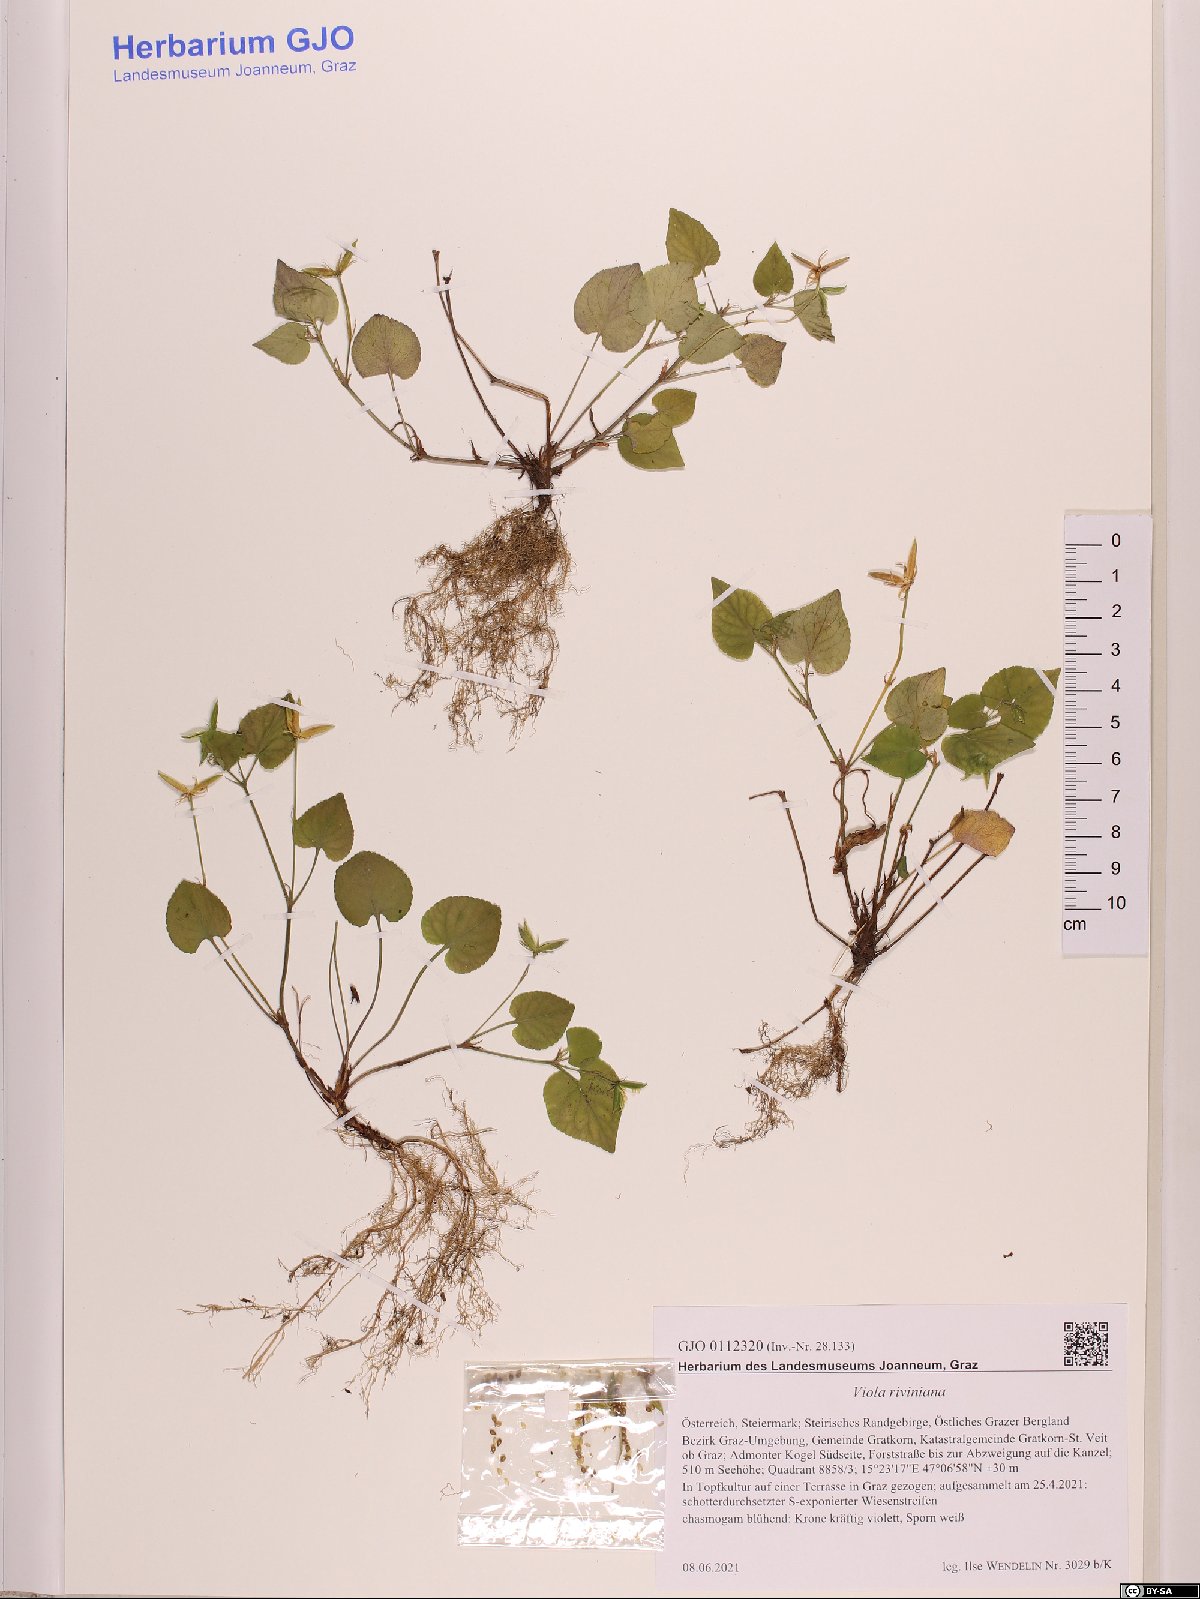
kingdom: Plantae
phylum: Tracheophyta
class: Magnoliopsida
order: Malpighiales
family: Violaceae
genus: Viola
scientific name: Viola riviniana
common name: Common dog-violet
